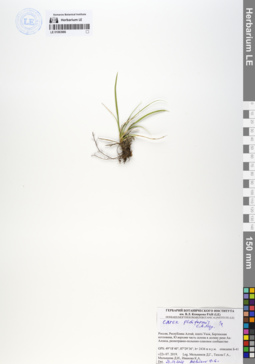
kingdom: Plantae
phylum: Tracheophyta
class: Liliopsida
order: Poales
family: Cyperaceae
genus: Carex
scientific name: Carex pediformis
